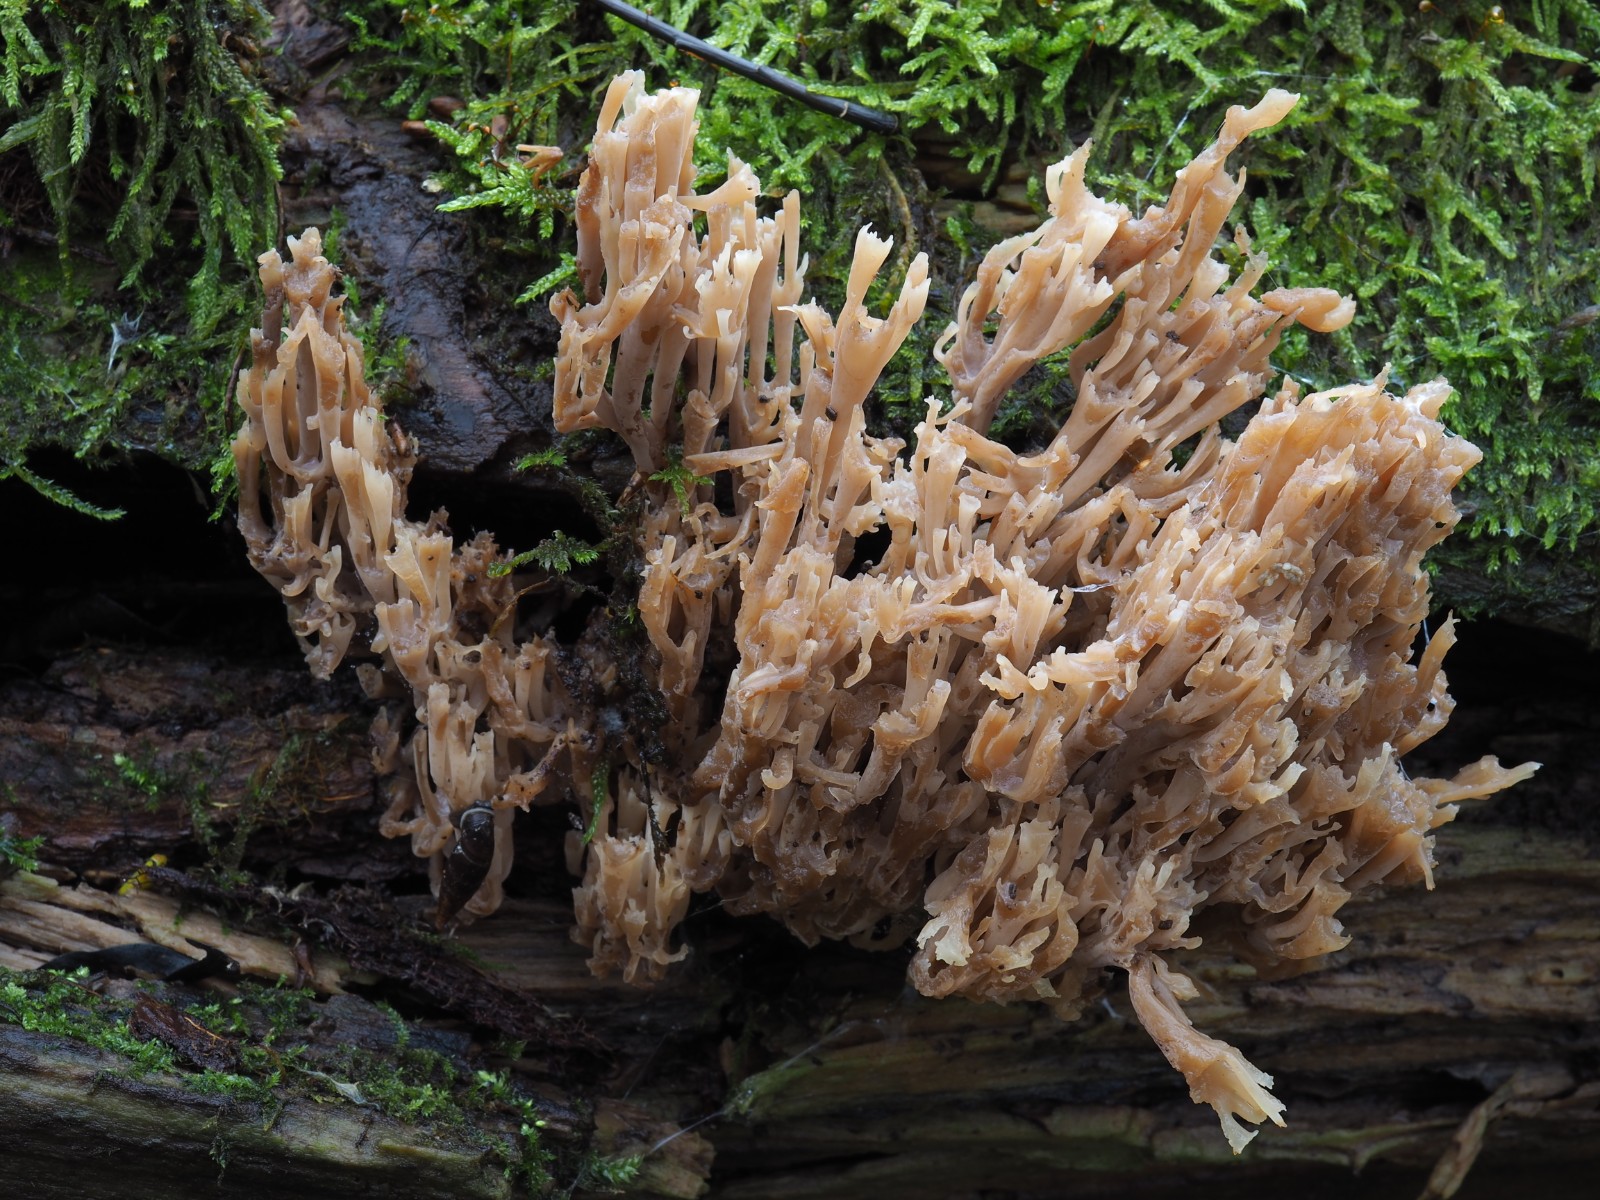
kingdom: Fungi
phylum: Basidiomycota
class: Agaricomycetes
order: Russulales
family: Auriscalpiaceae
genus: Artomyces
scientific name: Artomyces pyxidatus
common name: kandelabersvamp
